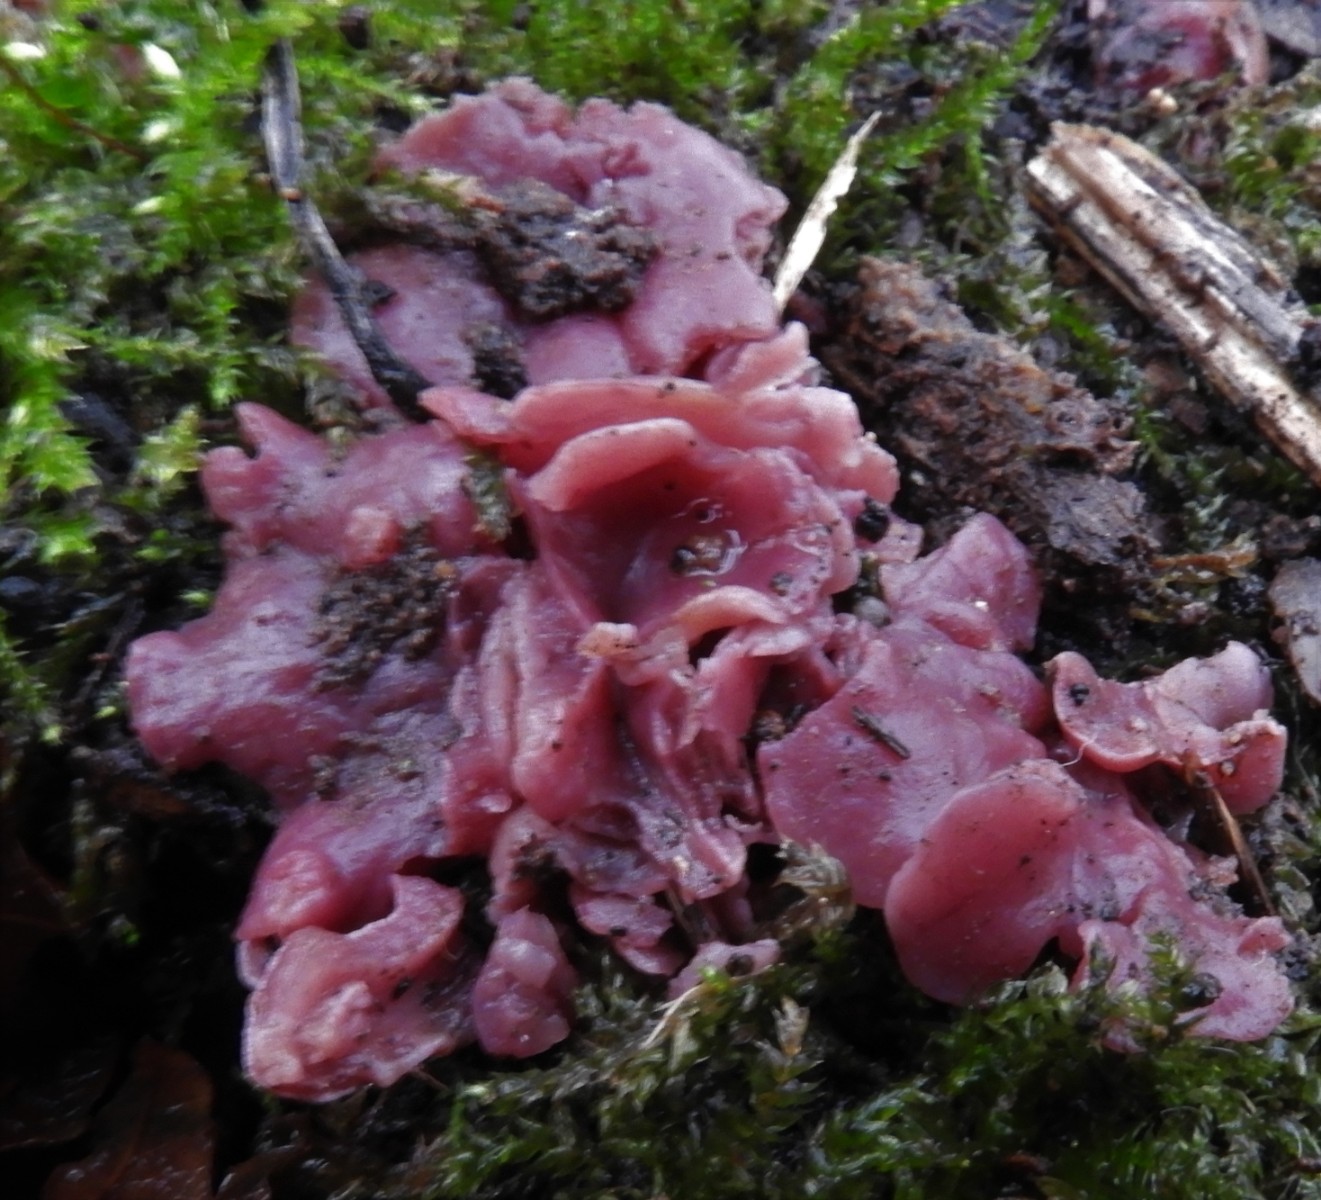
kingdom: Fungi
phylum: Ascomycota
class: Leotiomycetes
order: Helotiales
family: Gelatinodiscaceae
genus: Ascocoryne
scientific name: Ascocoryne cylichnium
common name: stor sejskive
